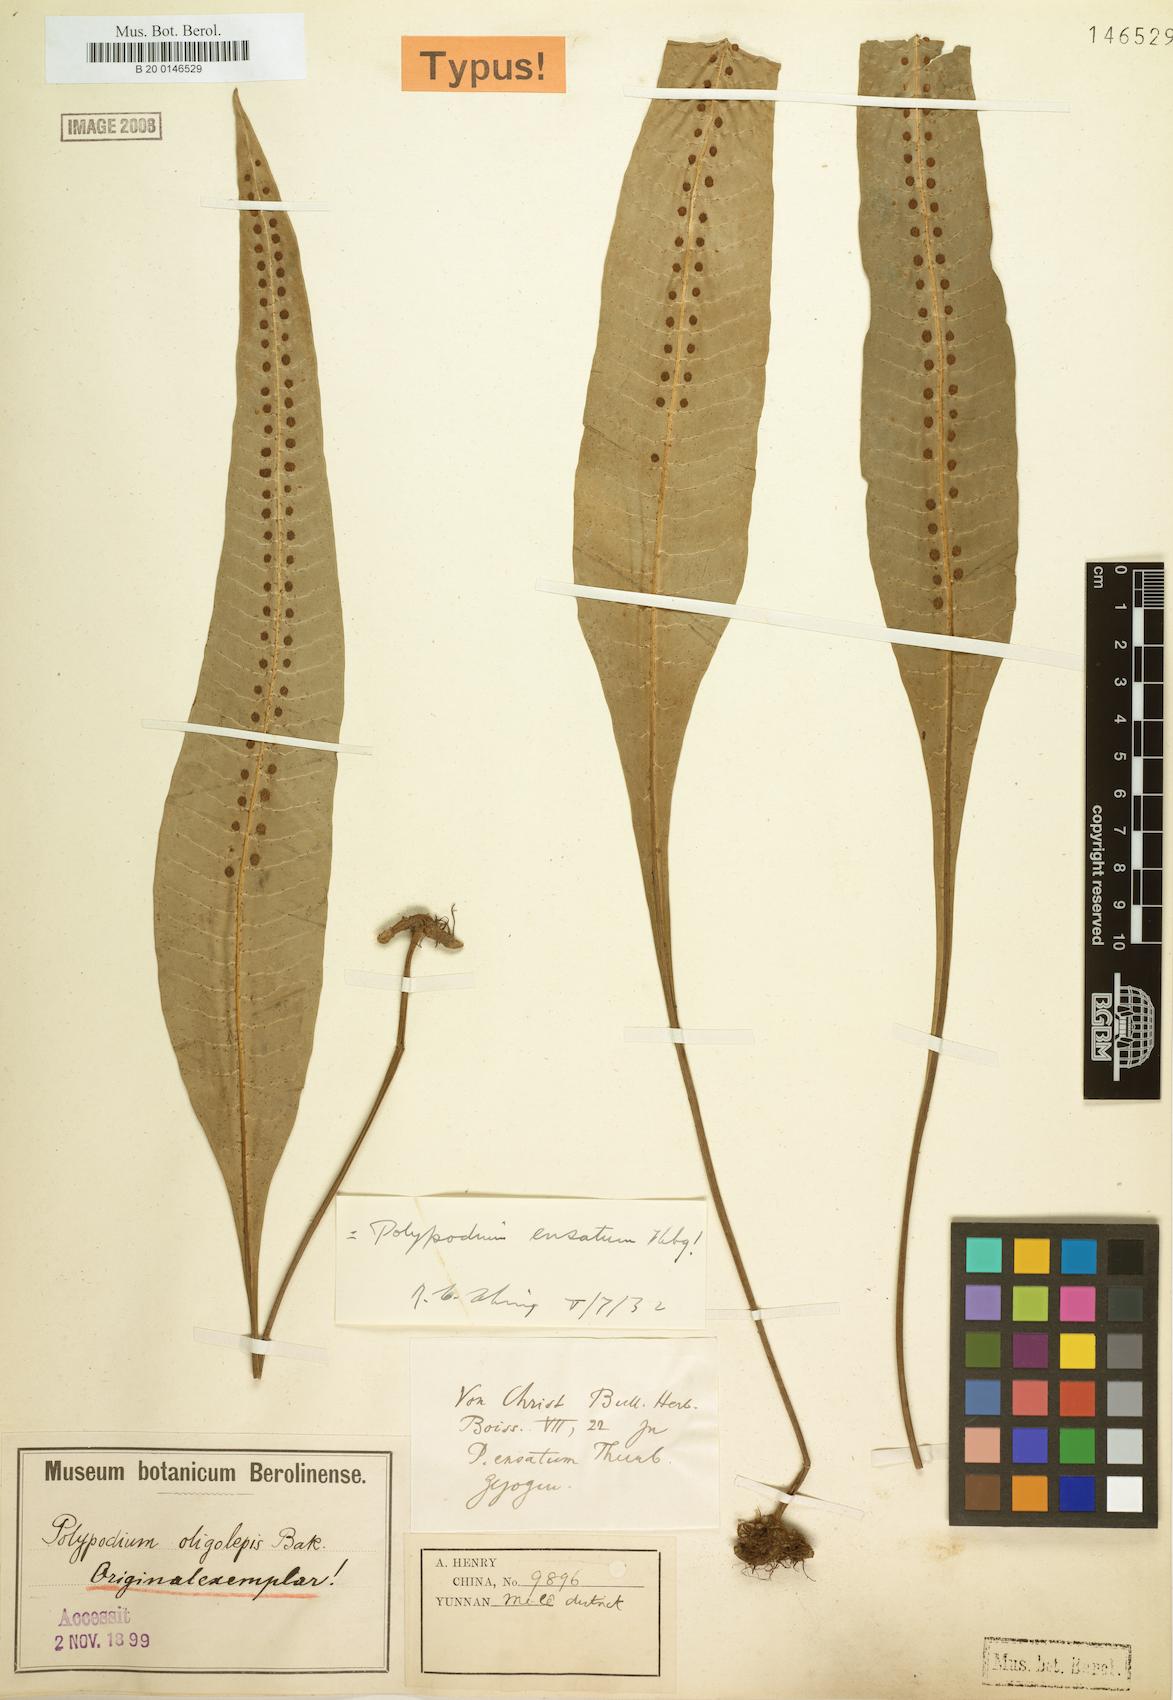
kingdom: Plantae
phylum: Tracheophyta
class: Polypodiopsida
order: Polypodiales
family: Polypodiaceae
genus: Lepisorus
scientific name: Lepisorus ensatus
